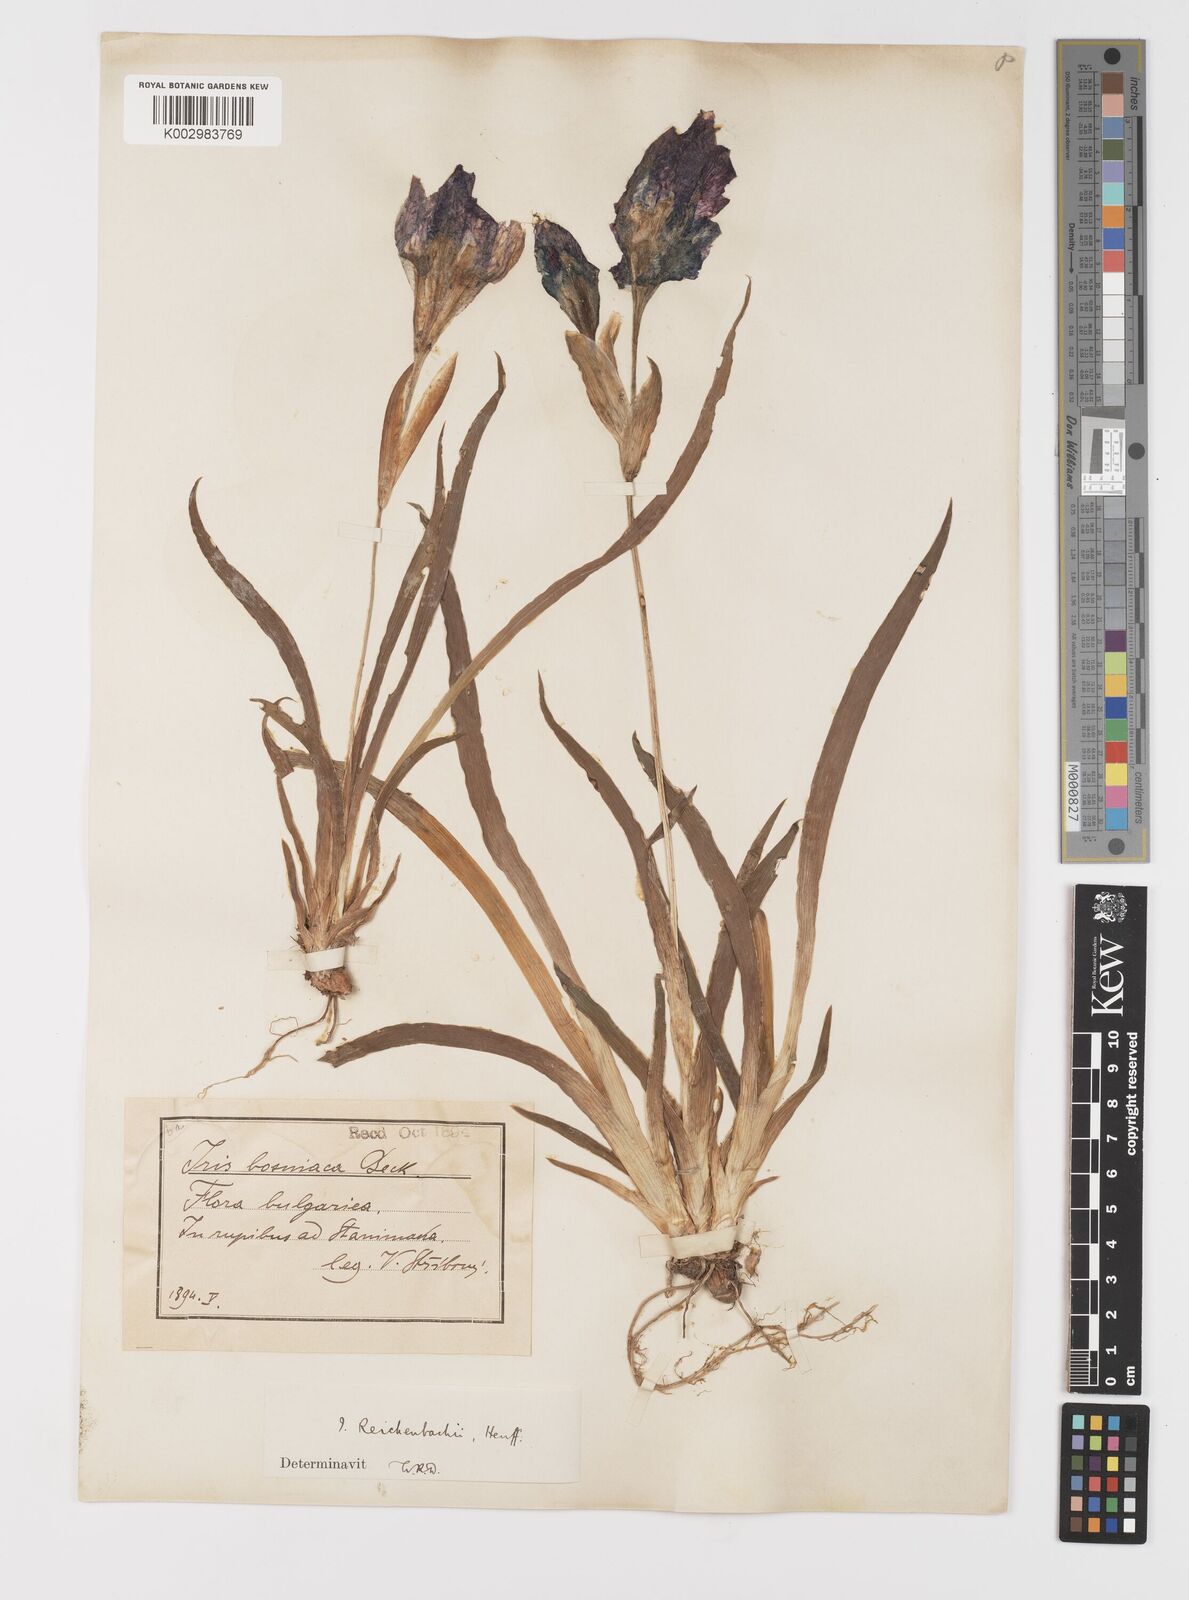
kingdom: Plantae
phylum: Tracheophyta
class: Liliopsida
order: Asparagales
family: Iridaceae
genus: Iris
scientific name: Iris reichenbachii
